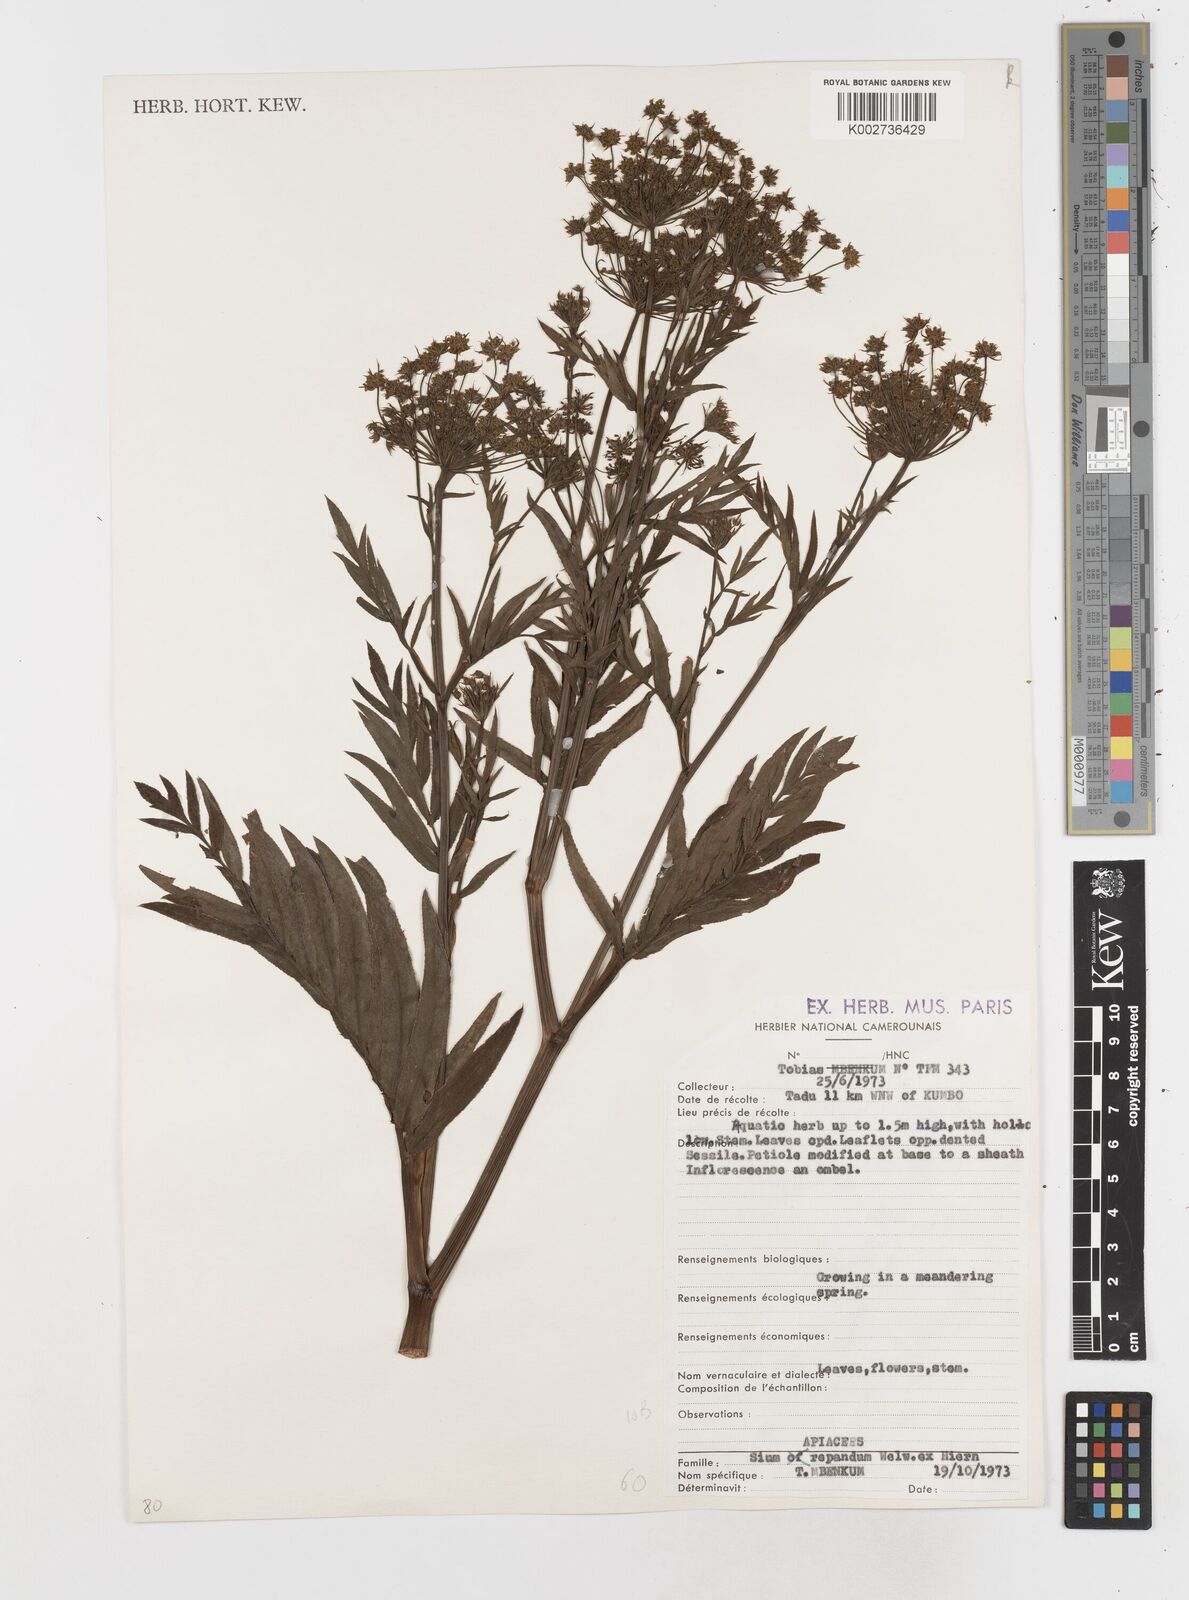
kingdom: Plantae
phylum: Tracheophyta
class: Magnoliopsida
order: Apiales
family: Apiaceae
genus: Berula
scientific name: Berula repanda
